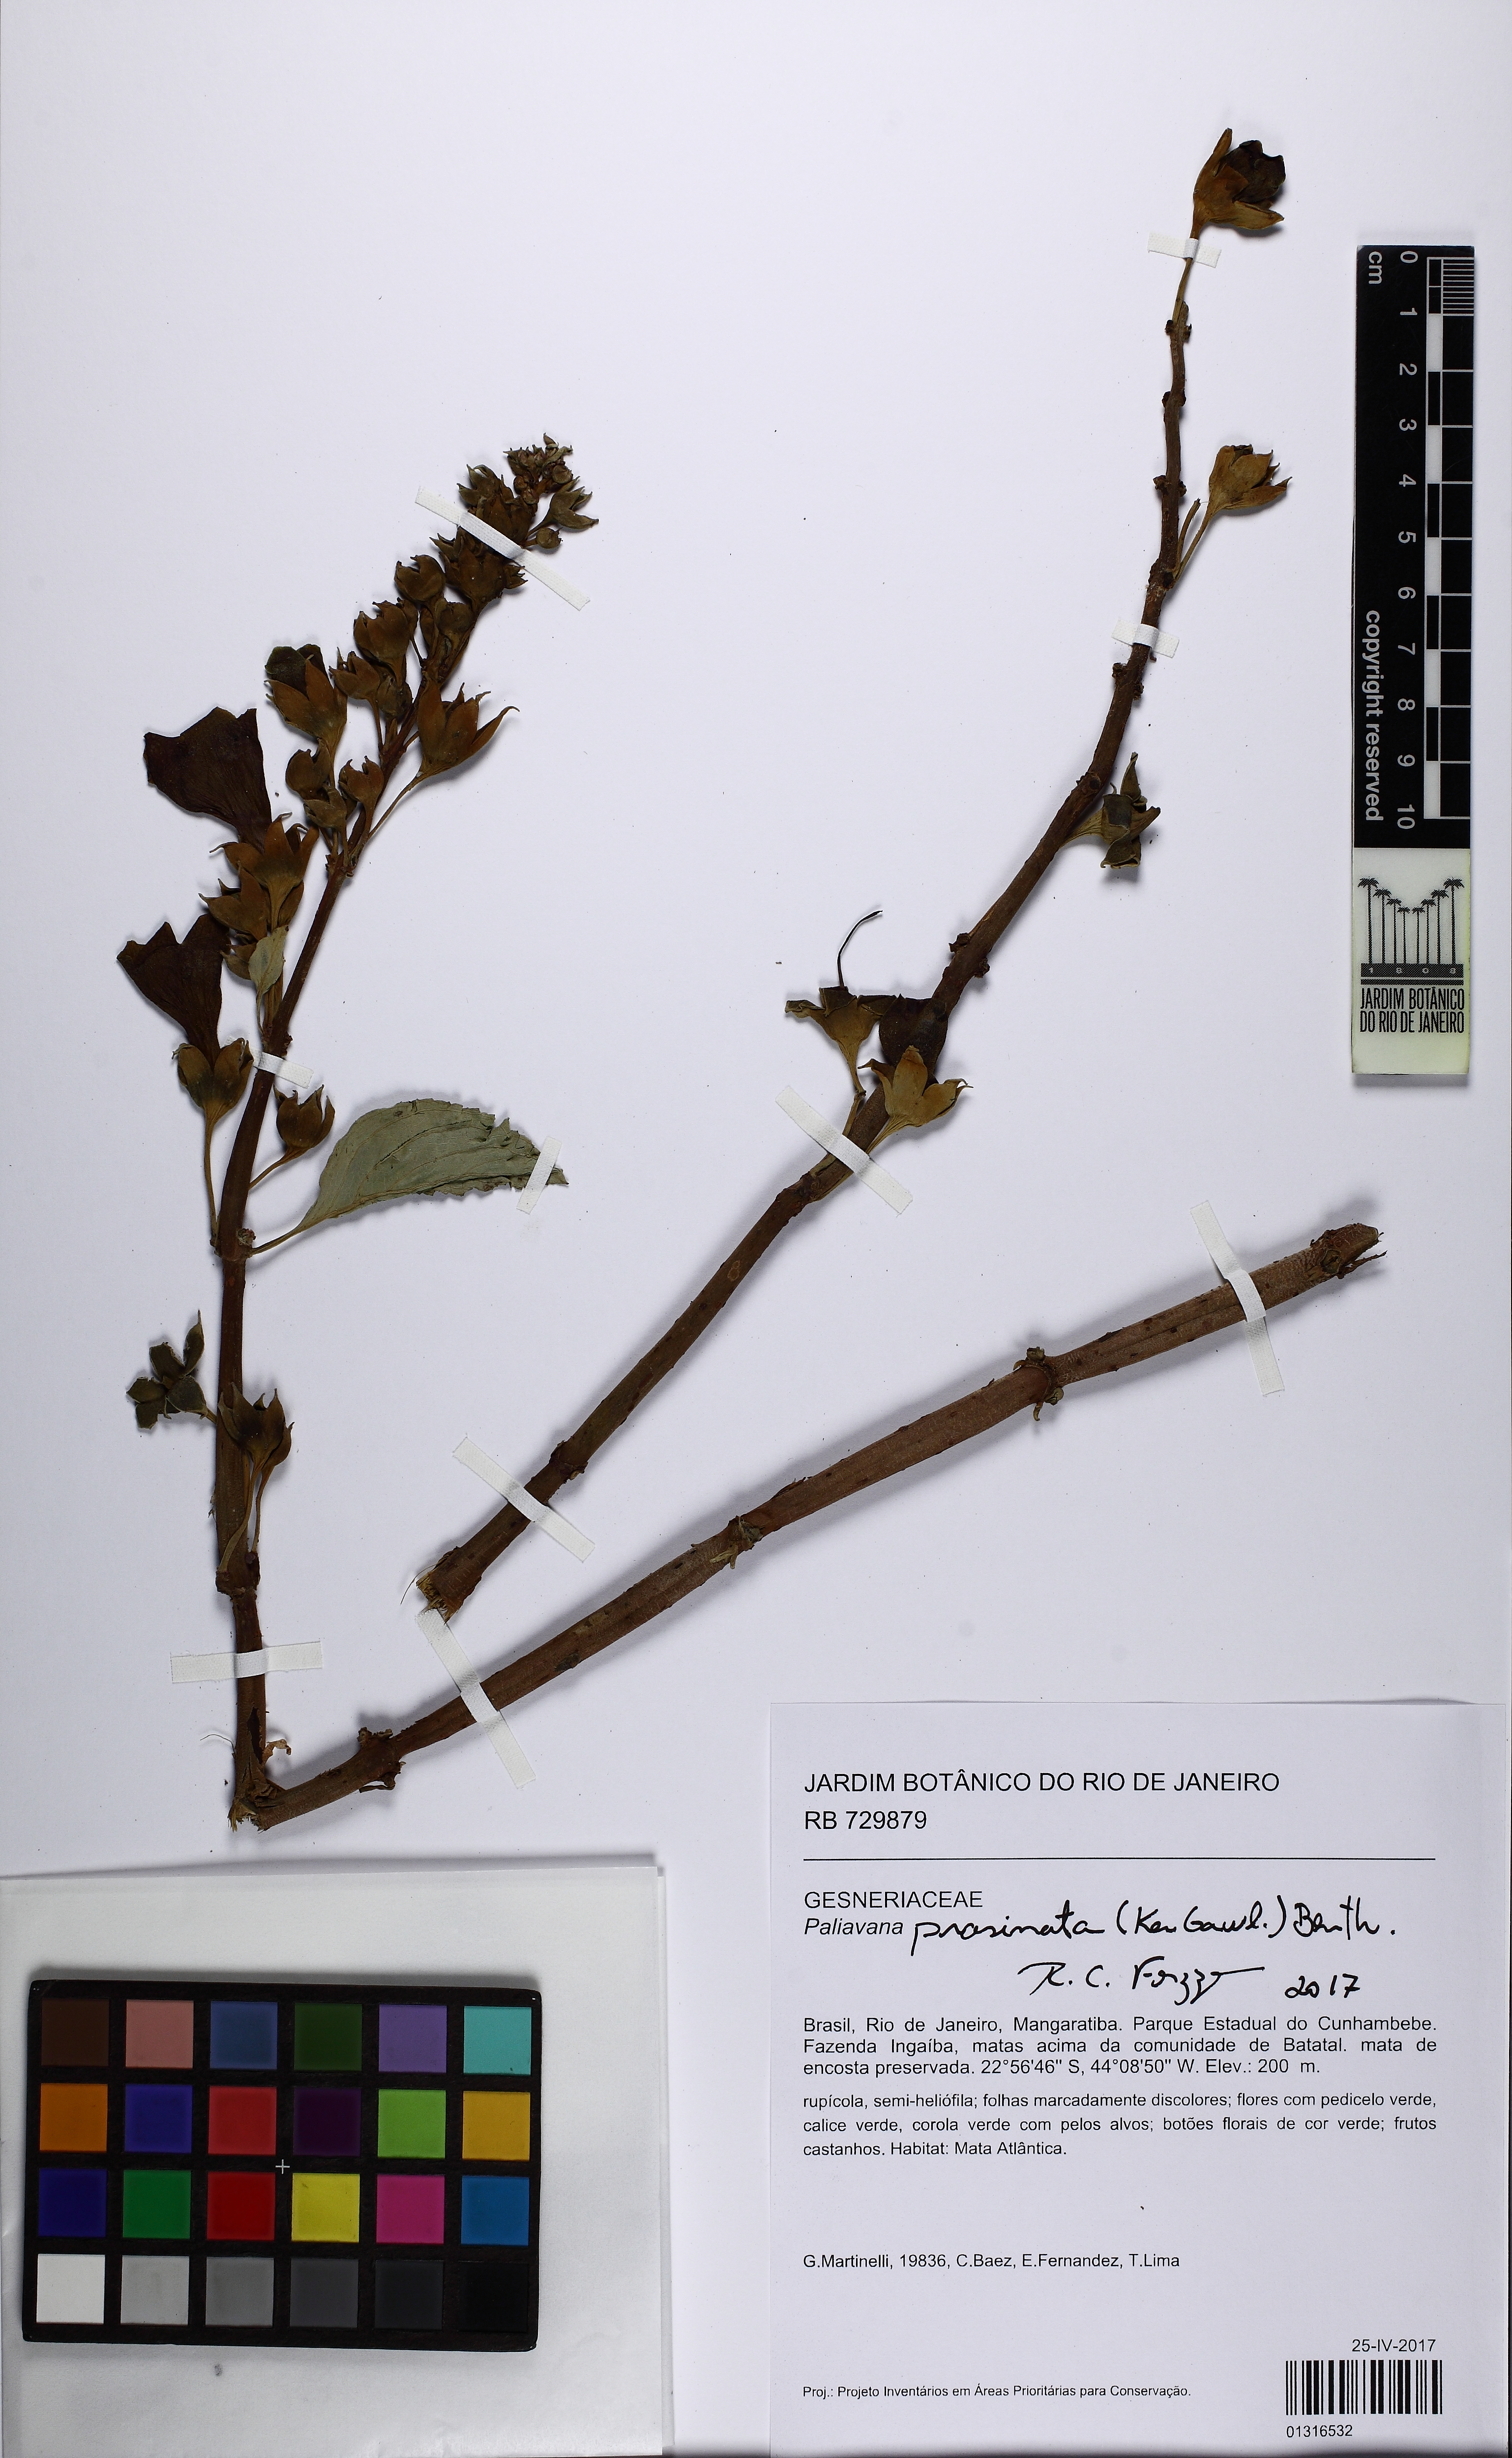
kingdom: Plantae
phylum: Tracheophyta
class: Magnoliopsida
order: Lamiales
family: Gesneriaceae
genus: Paliavana
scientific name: Paliavana prasinata
